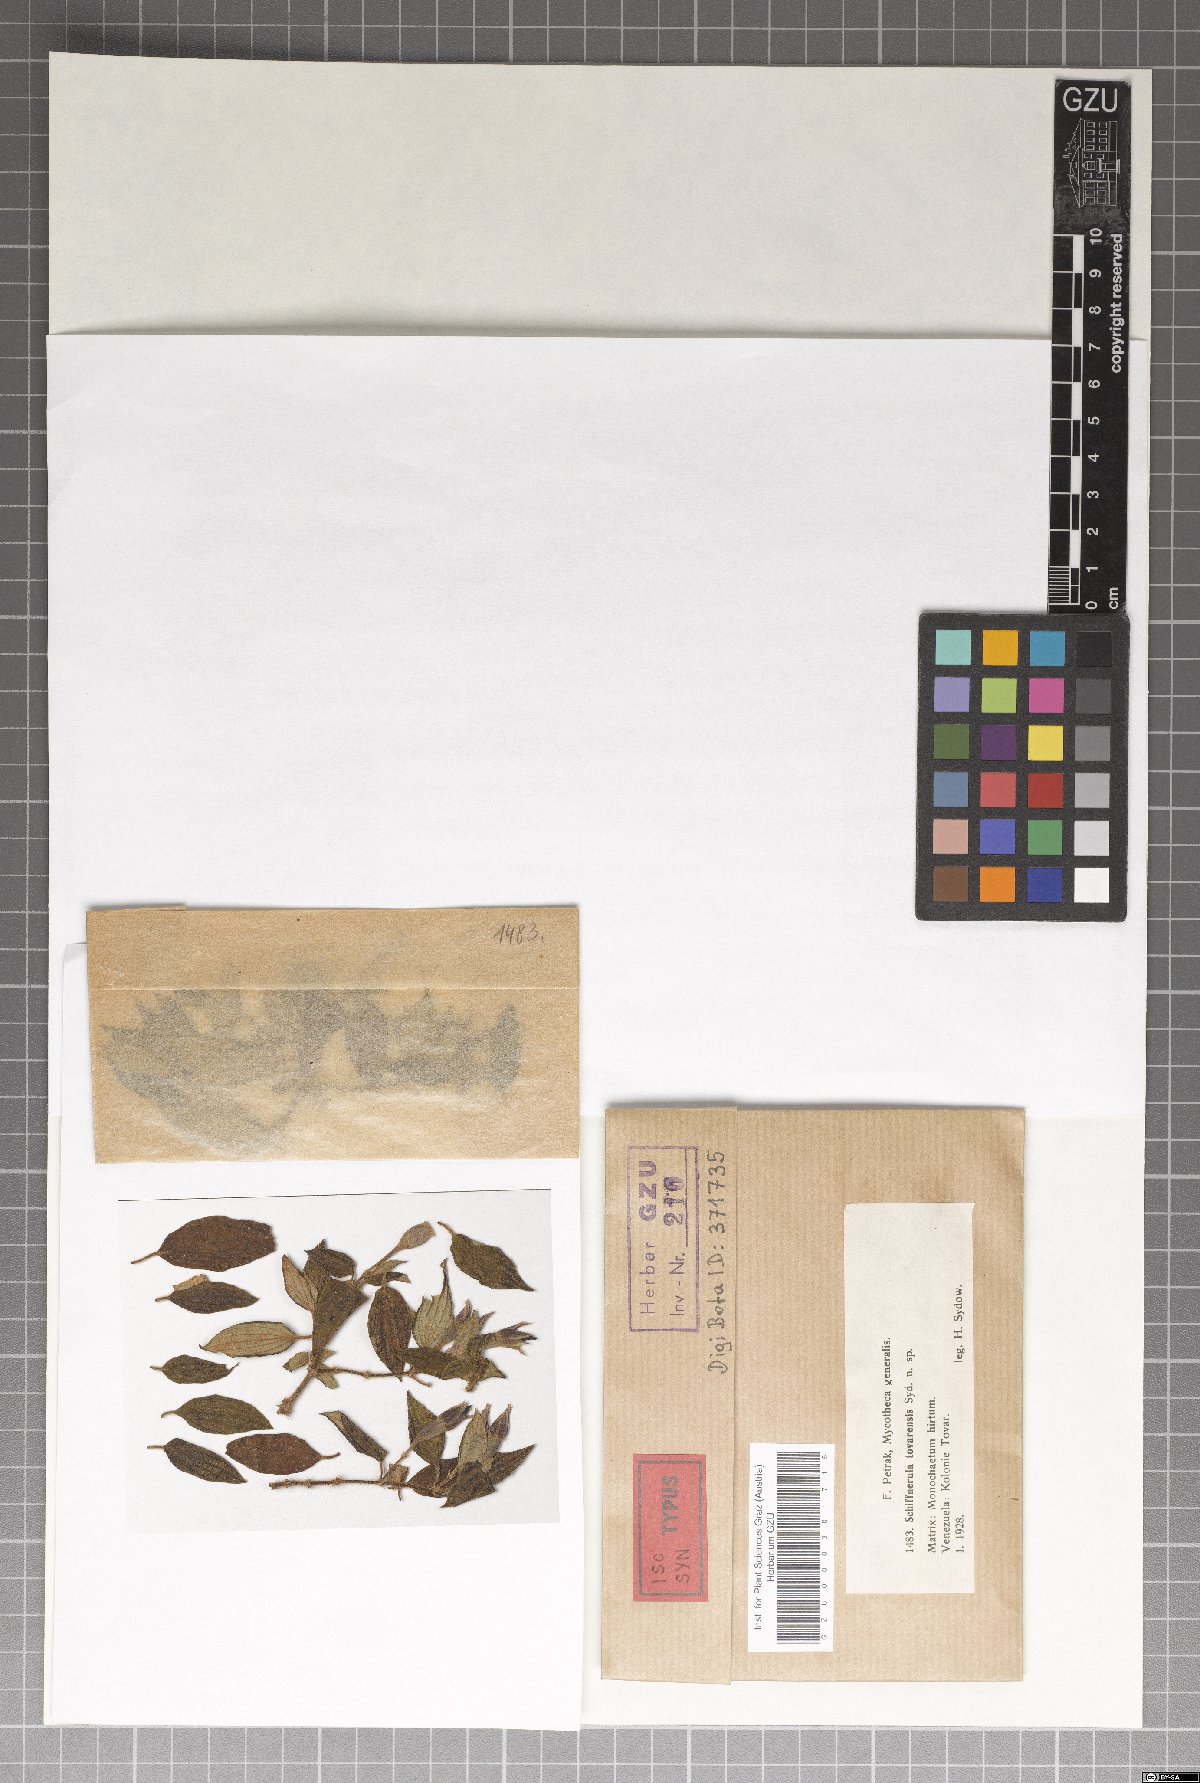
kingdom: Fungi
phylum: Ascomycota
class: Dothideomycetes
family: Englerulaceae
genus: Schiffnerula
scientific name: Schiffnerula tovarensis
